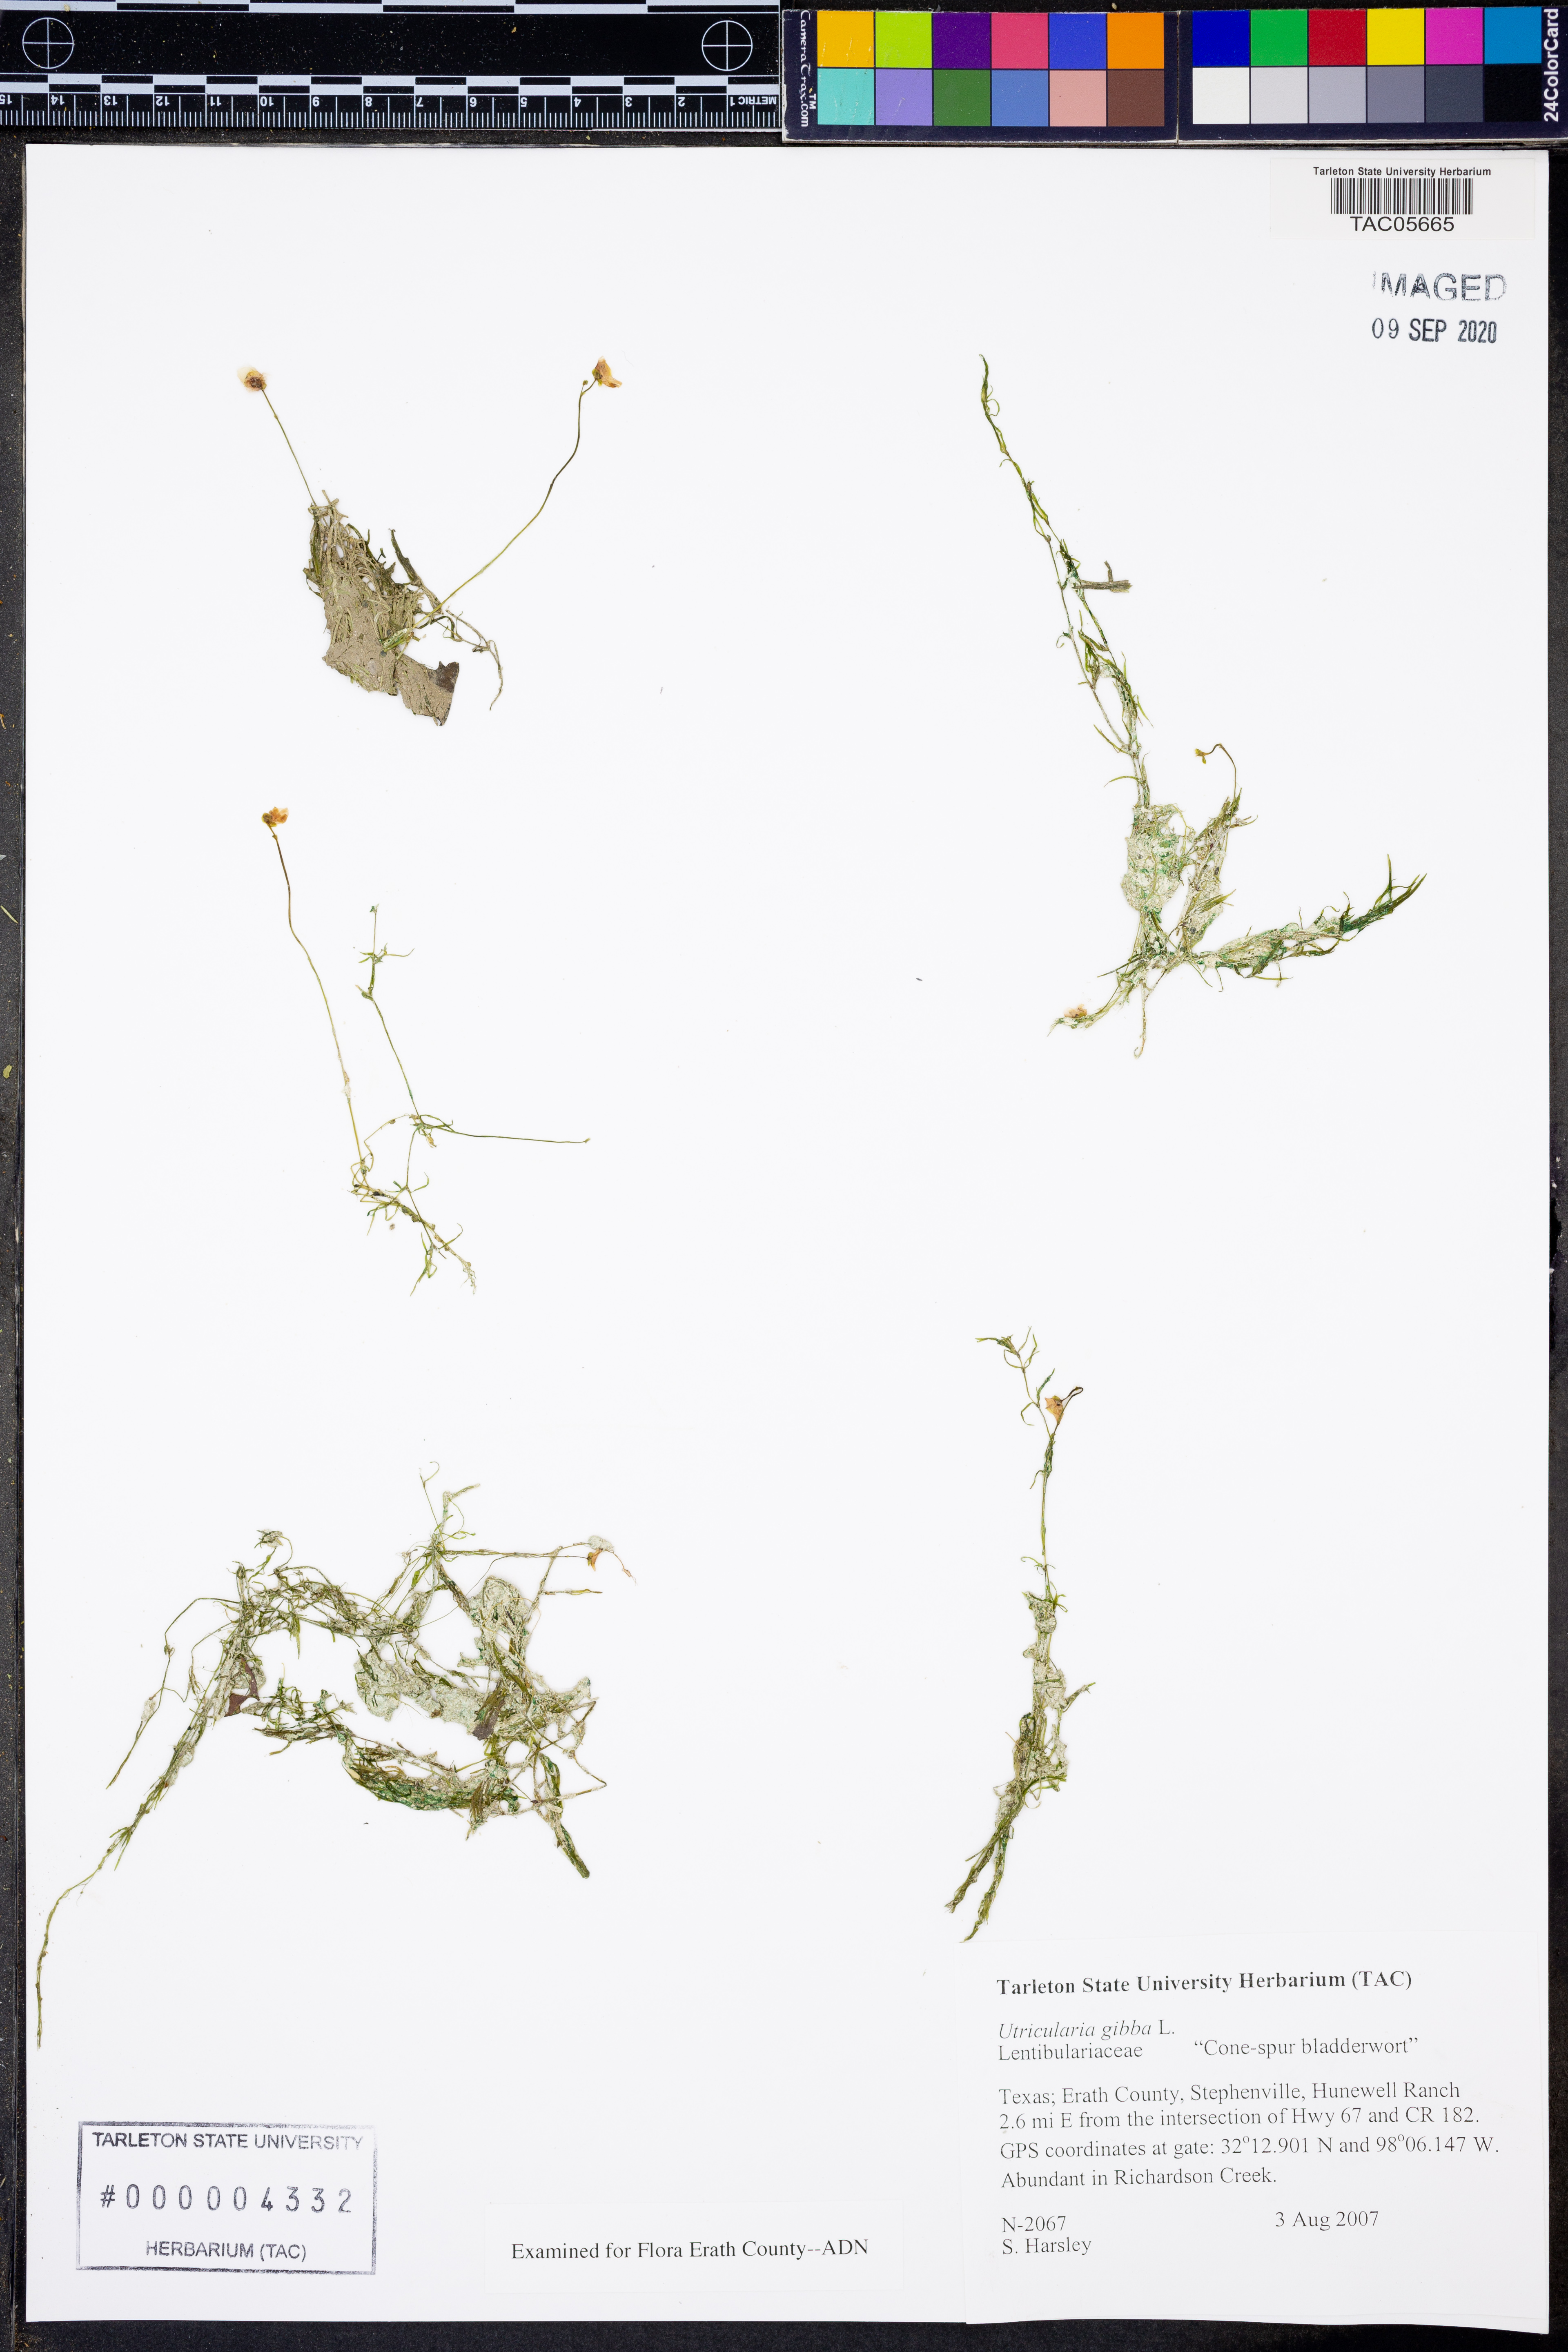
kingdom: Plantae
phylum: Tracheophyta
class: Magnoliopsida
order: Lamiales
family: Lentibulariaceae
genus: Utricularia
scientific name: Utricularia gibba
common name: Humped bladderwort
